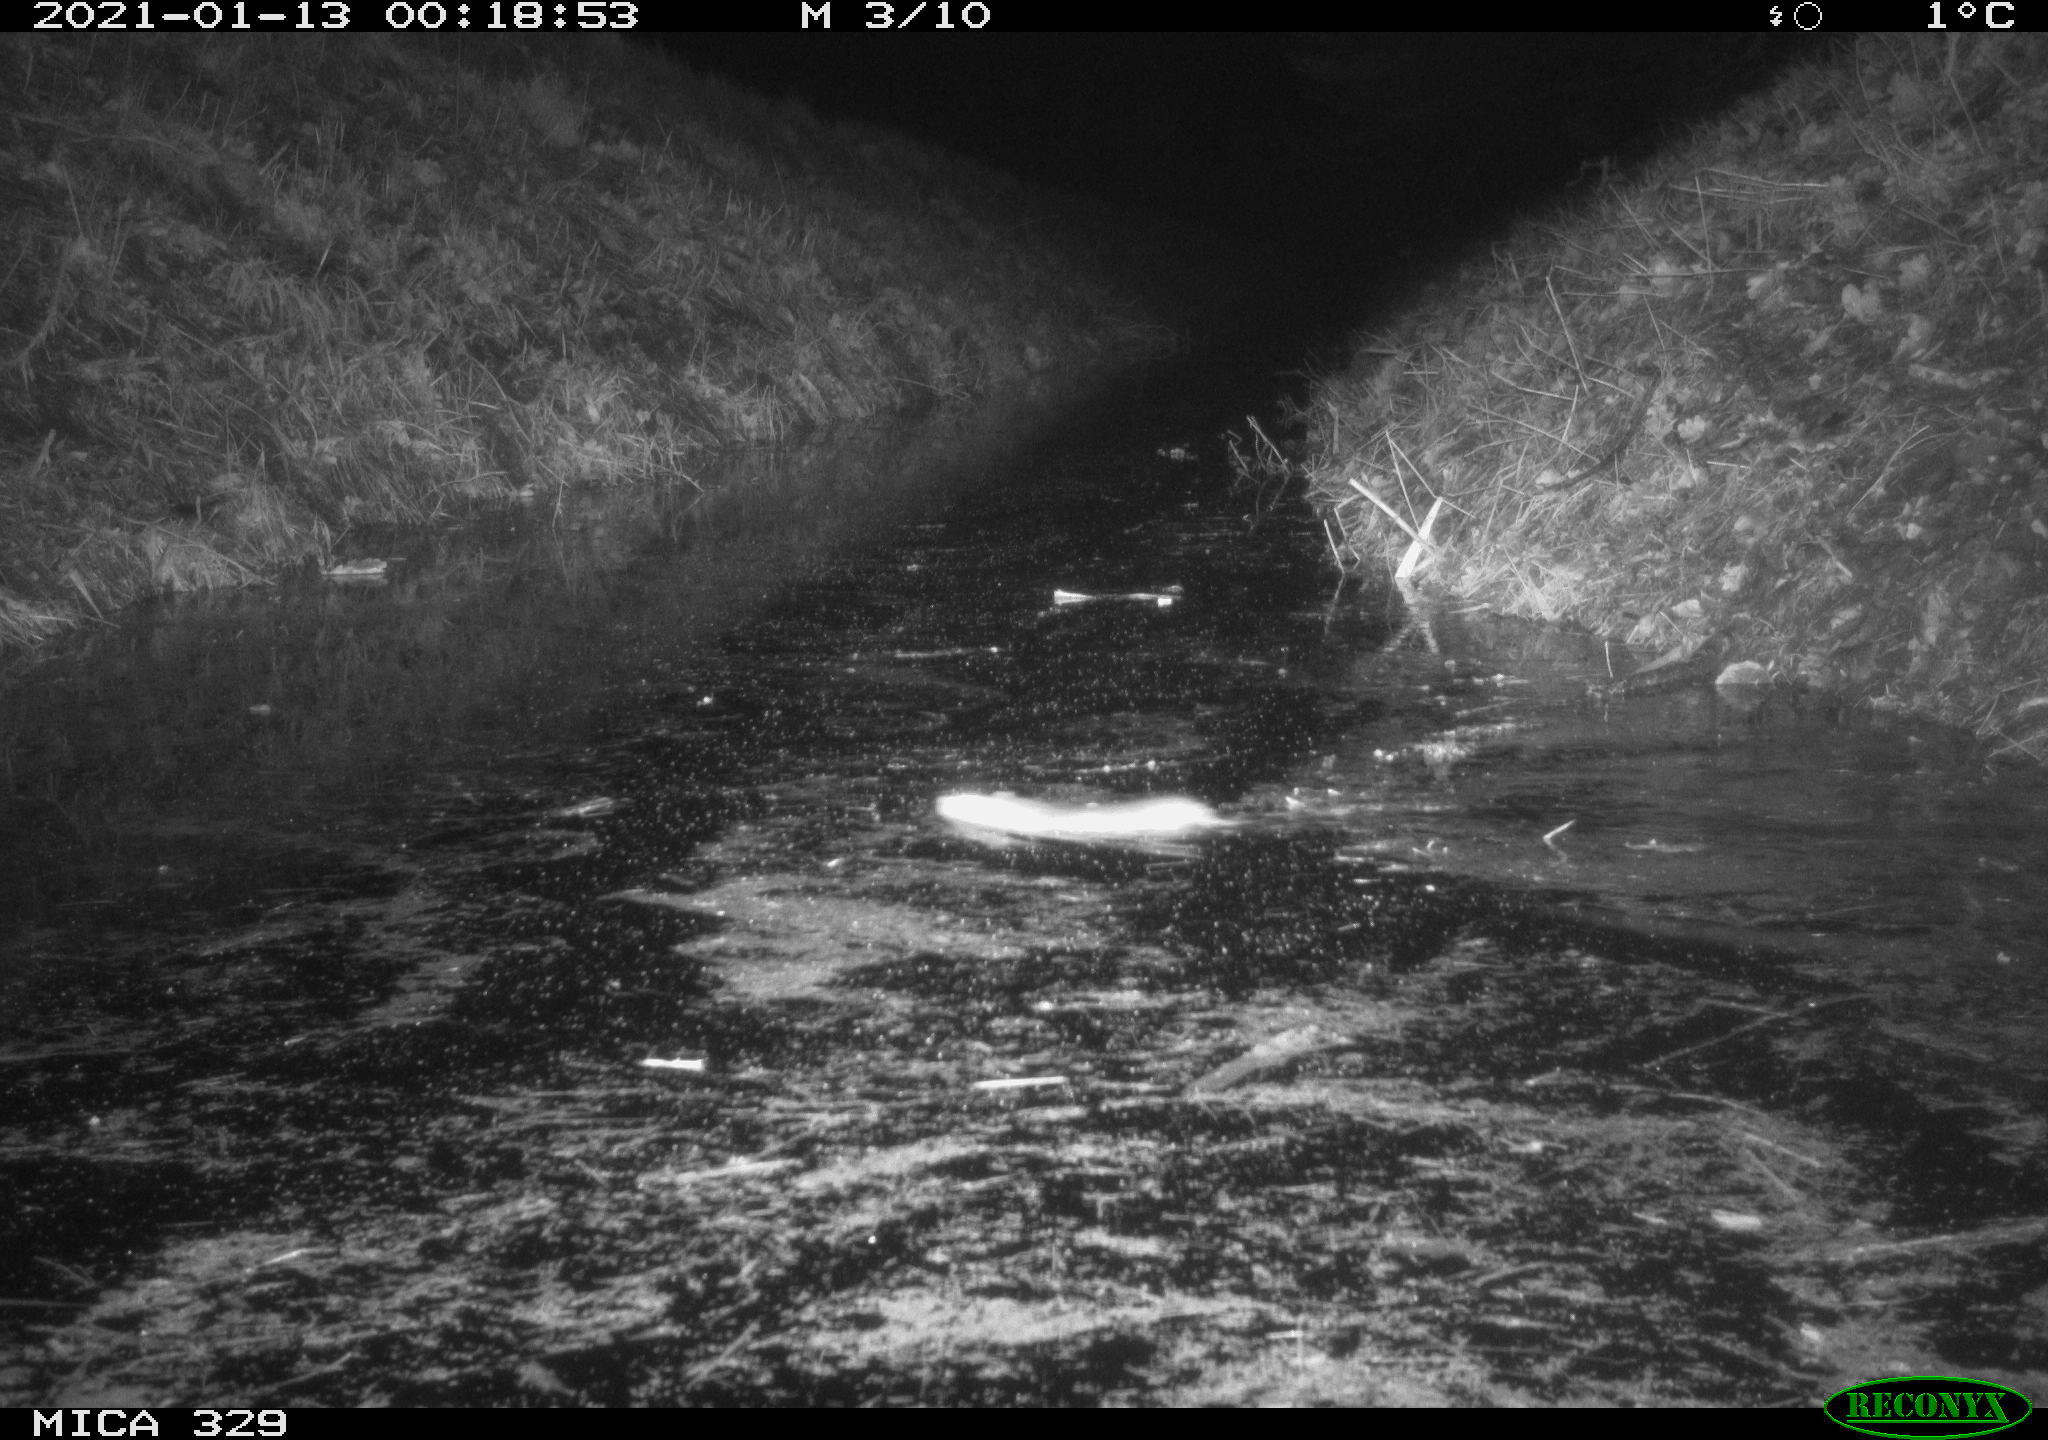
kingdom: Animalia
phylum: Chordata
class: Mammalia
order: Rodentia
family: Muridae
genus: Rattus
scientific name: Rattus norvegicus
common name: Brown rat
